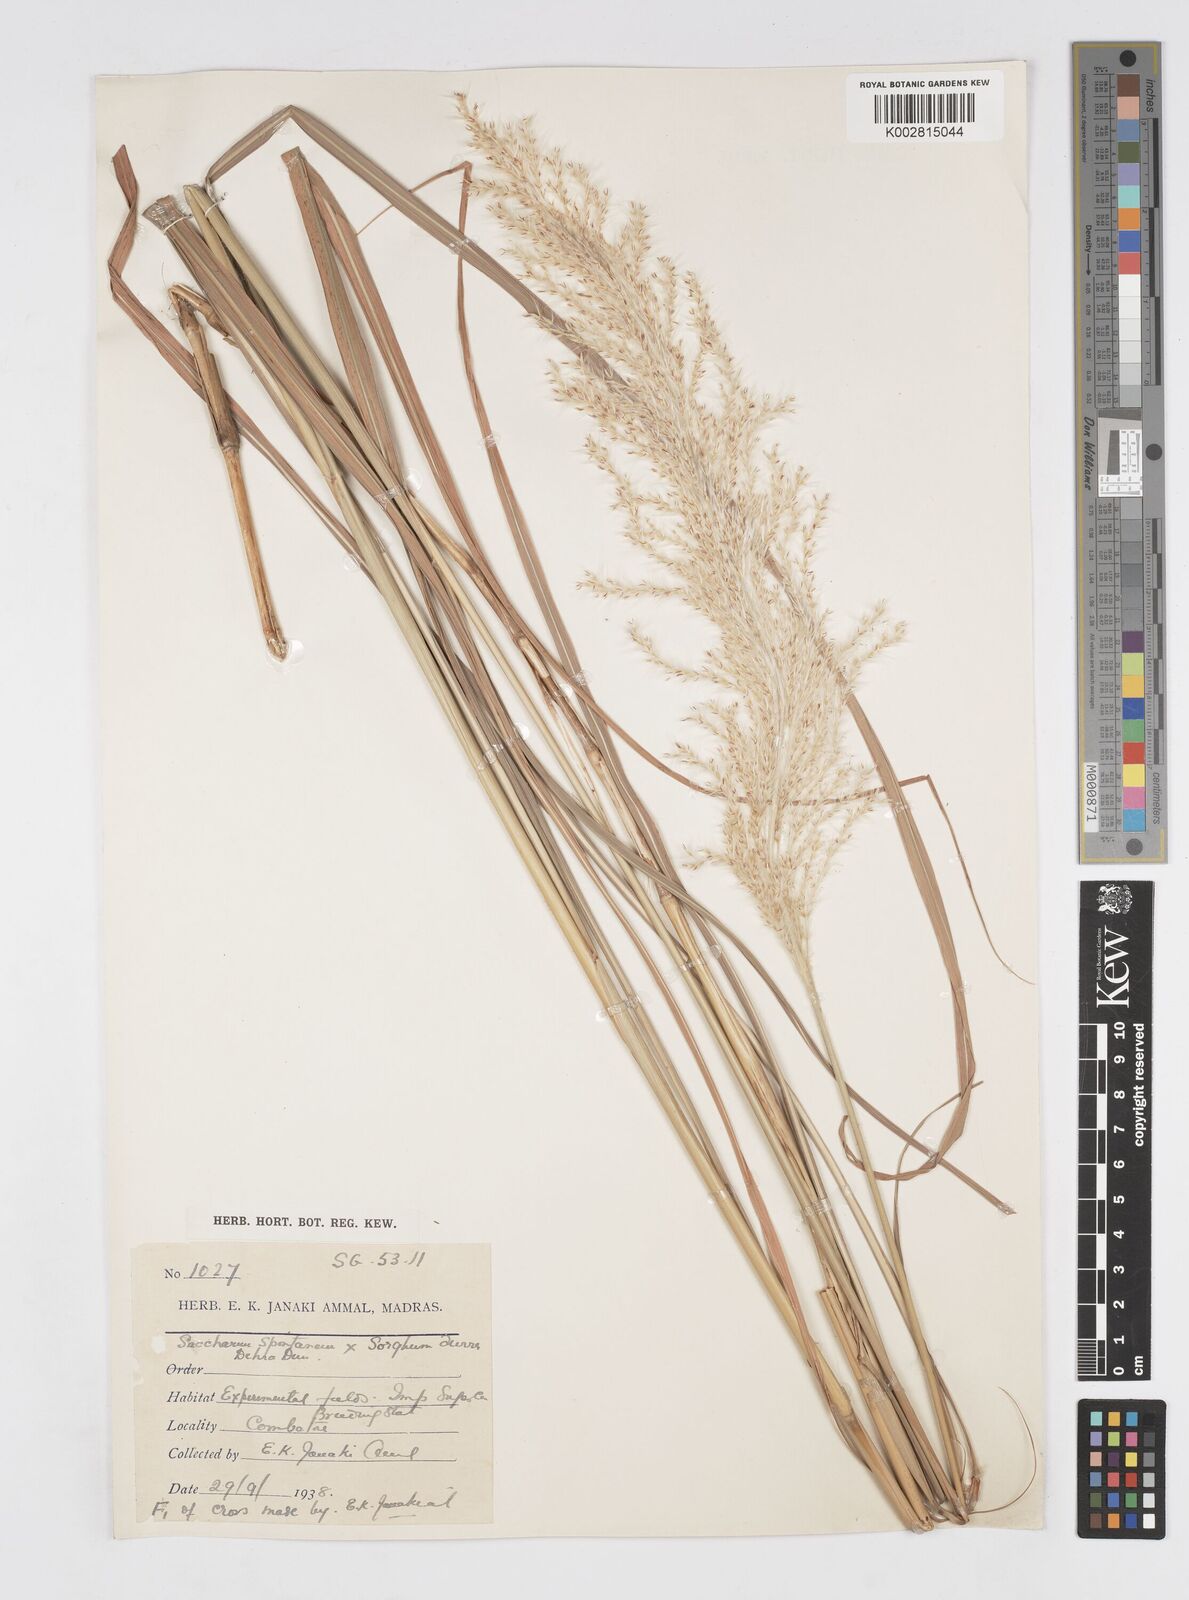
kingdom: Plantae
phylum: Tracheophyta
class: Liliopsida
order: Poales
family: Poaceae
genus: Saccharum
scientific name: Saccharum
